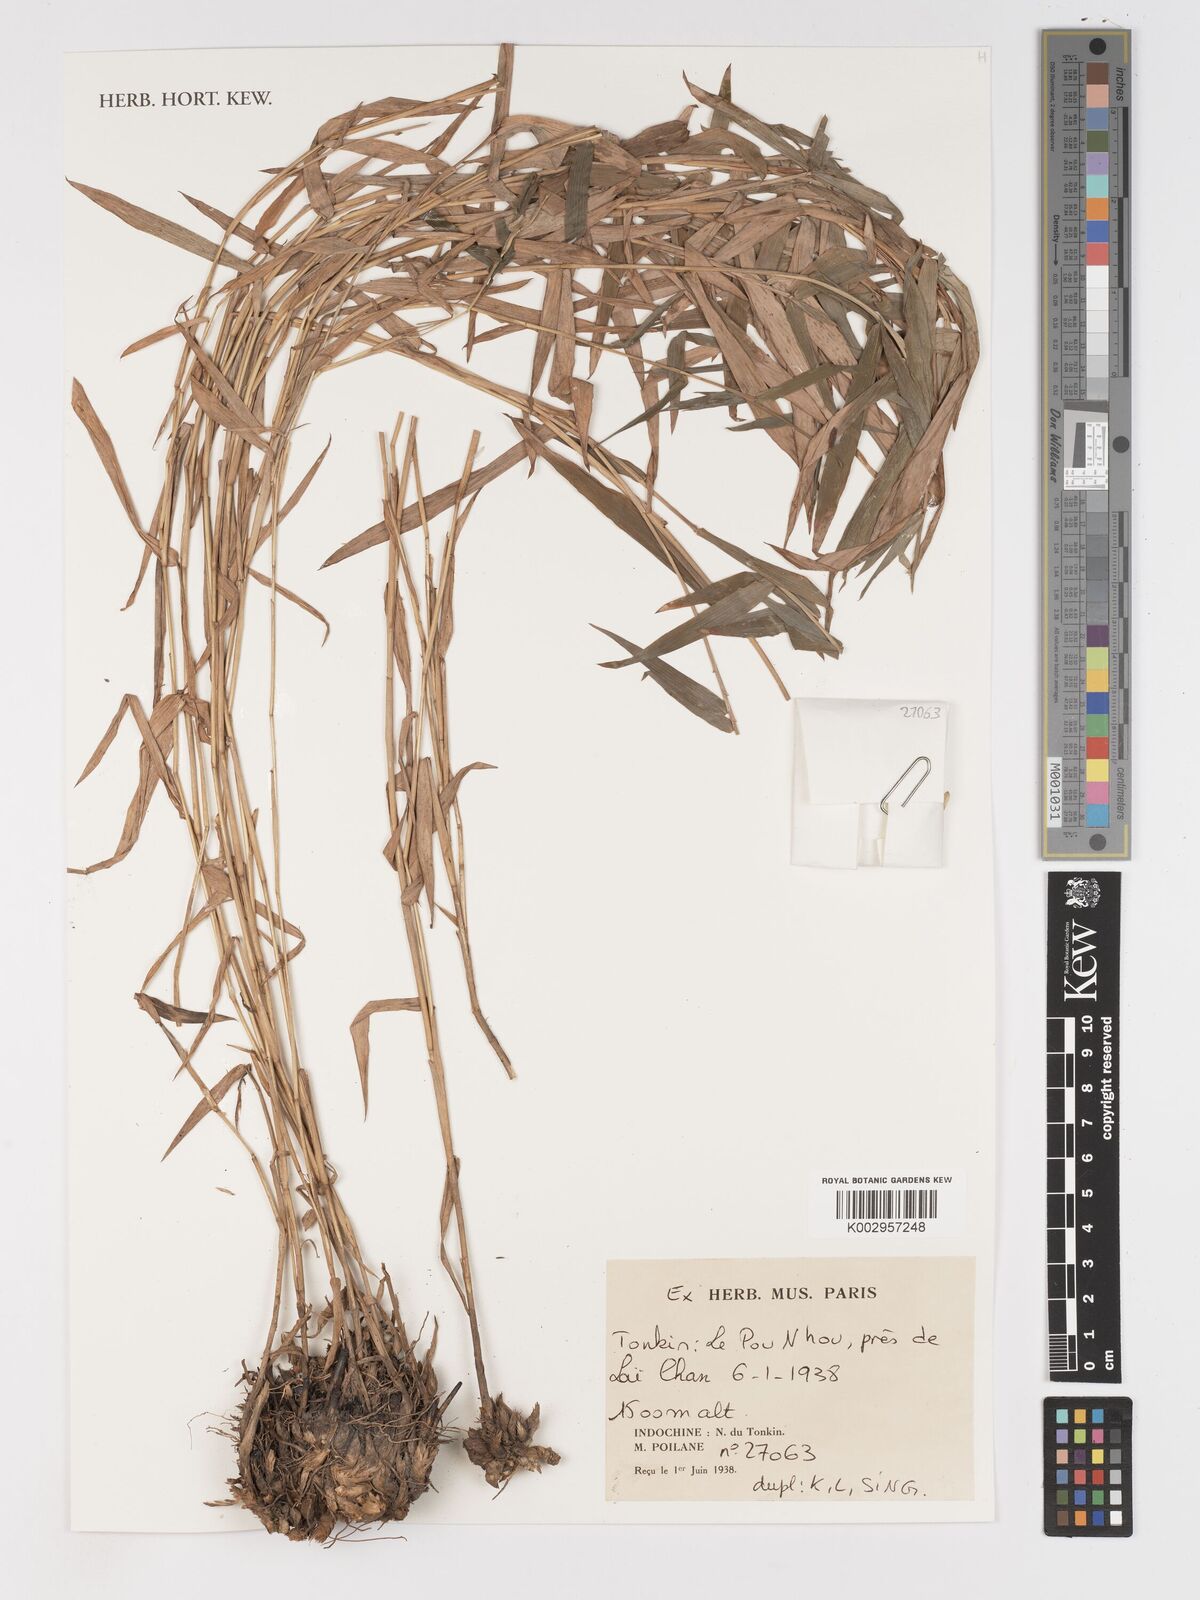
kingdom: Plantae
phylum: Tracheophyta
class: Liliopsida
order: Poales
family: Poaceae
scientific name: Poaceae
